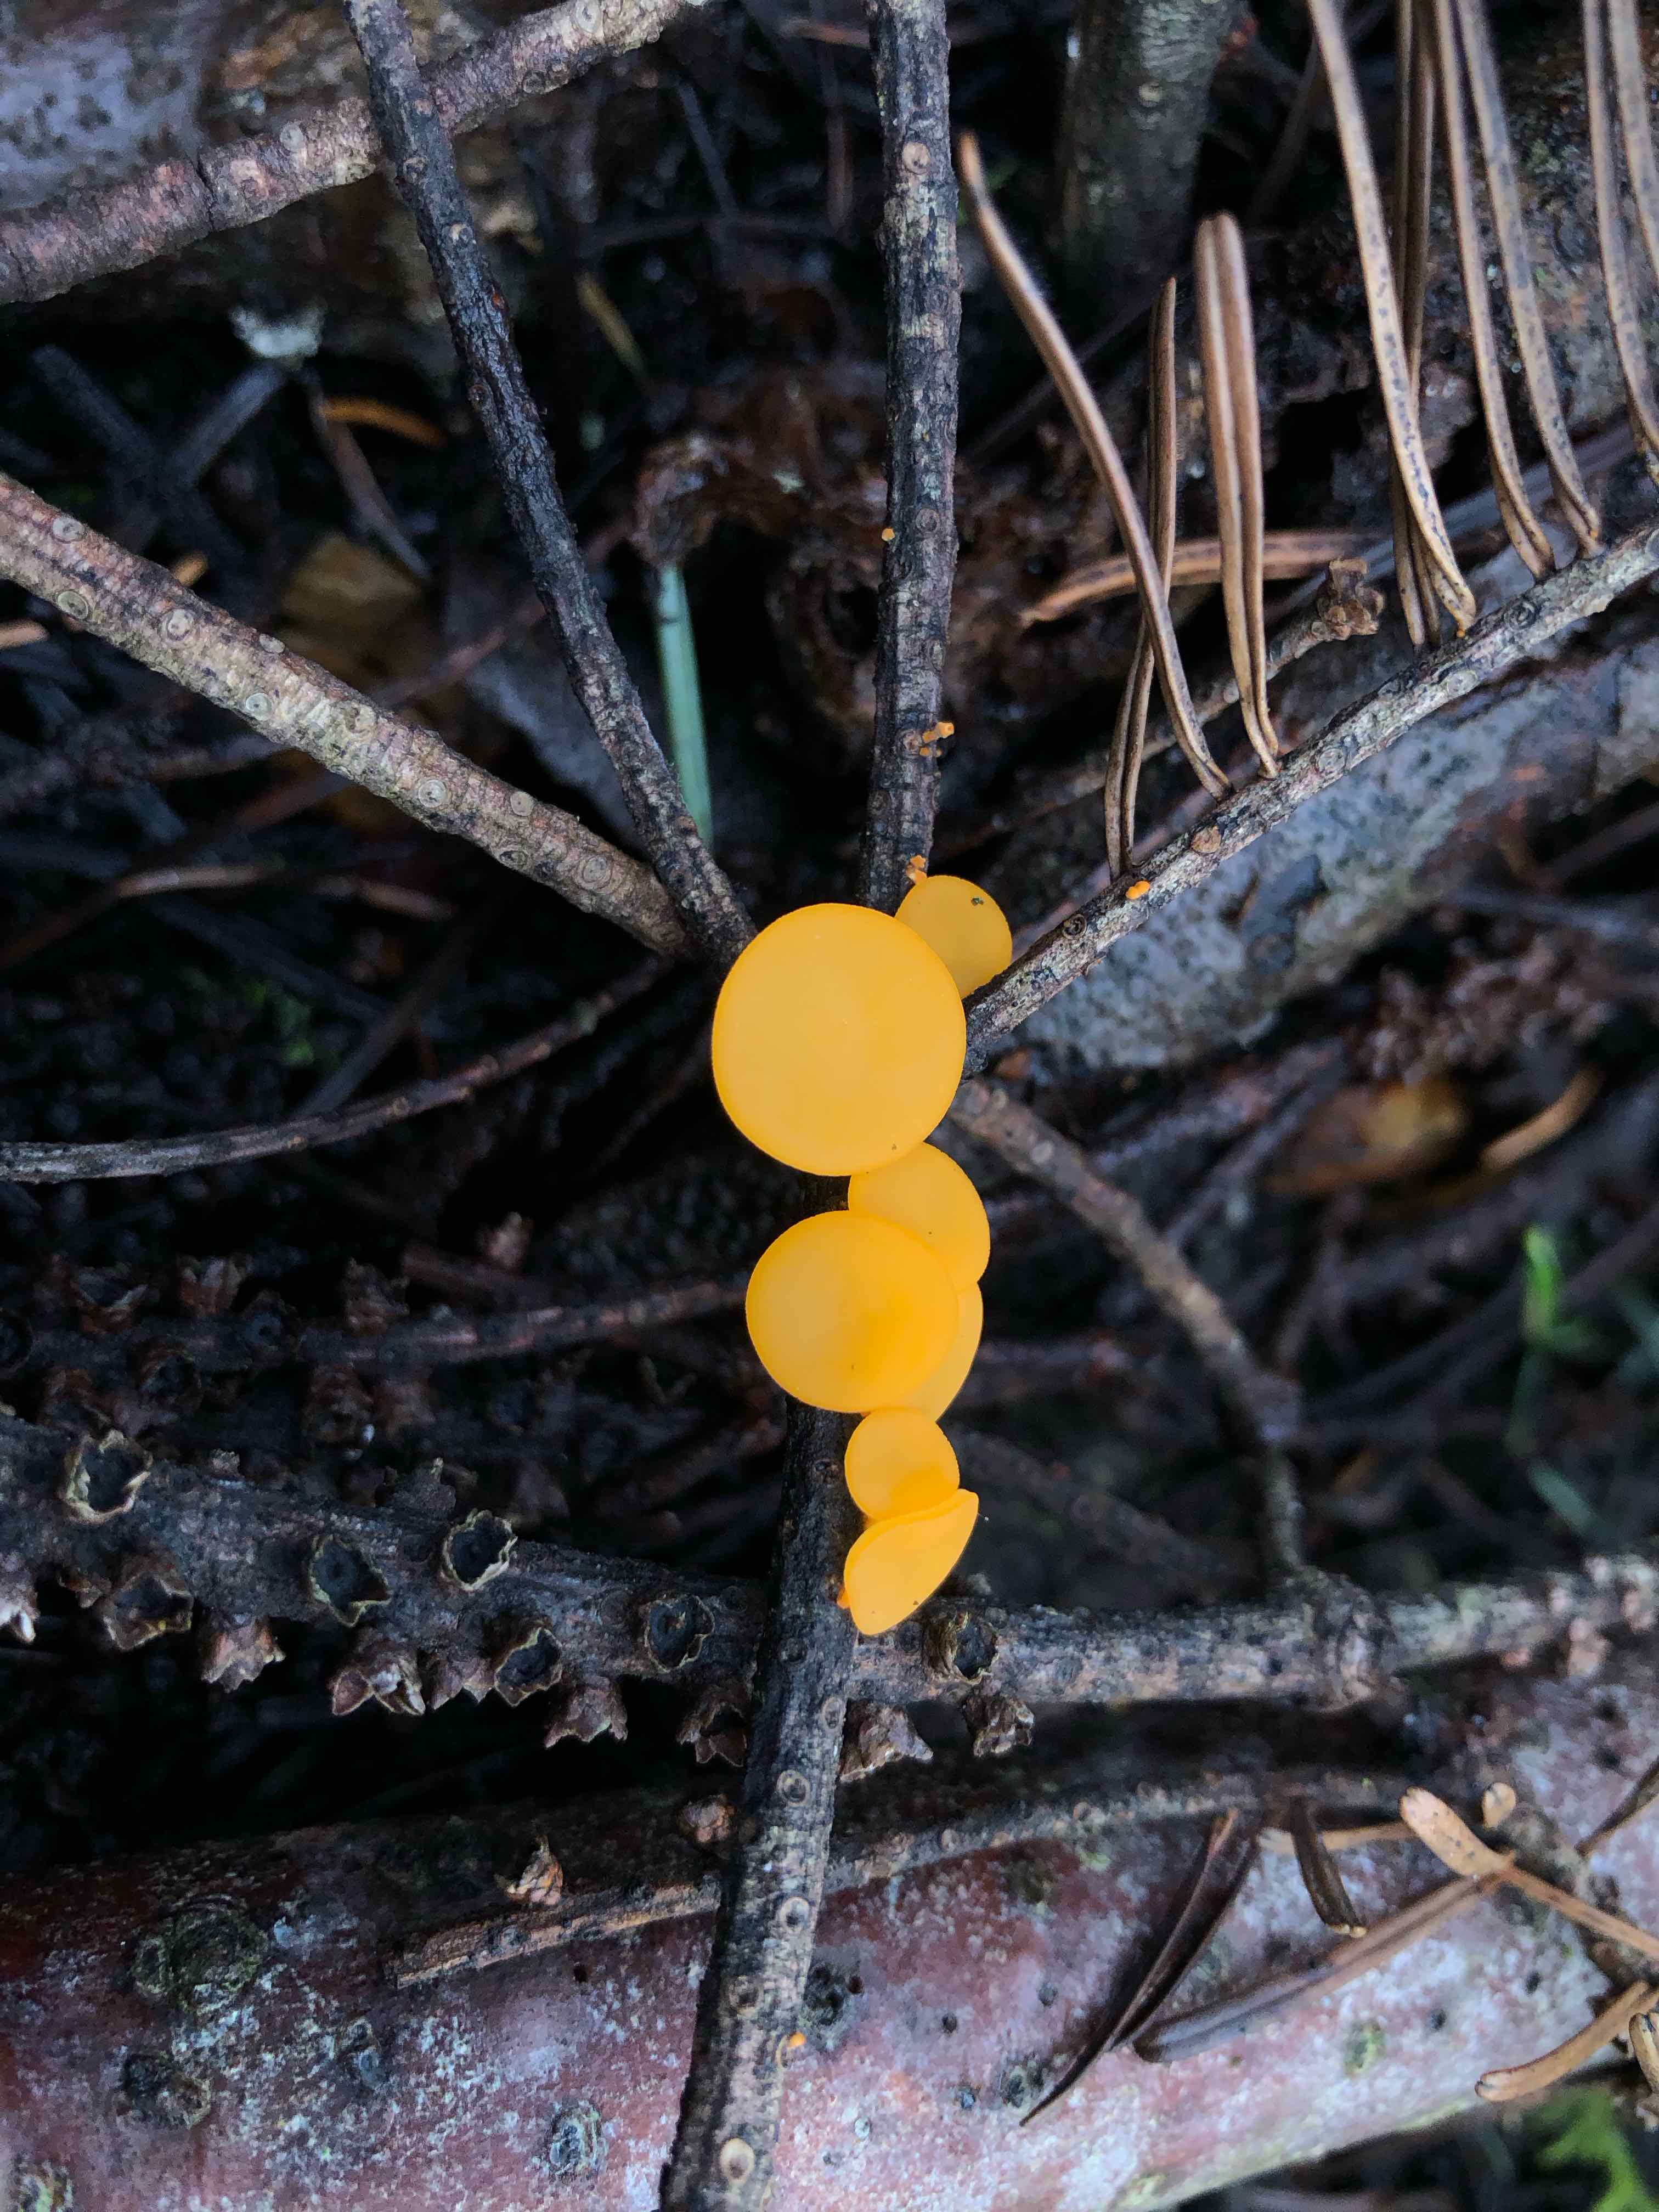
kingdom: Fungi
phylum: Ascomycota
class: Pezizomycetes
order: Pezizales
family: Sarcoscyphaceae
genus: Pithya
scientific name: Pithya vulgaris
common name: stor dukatbæger
